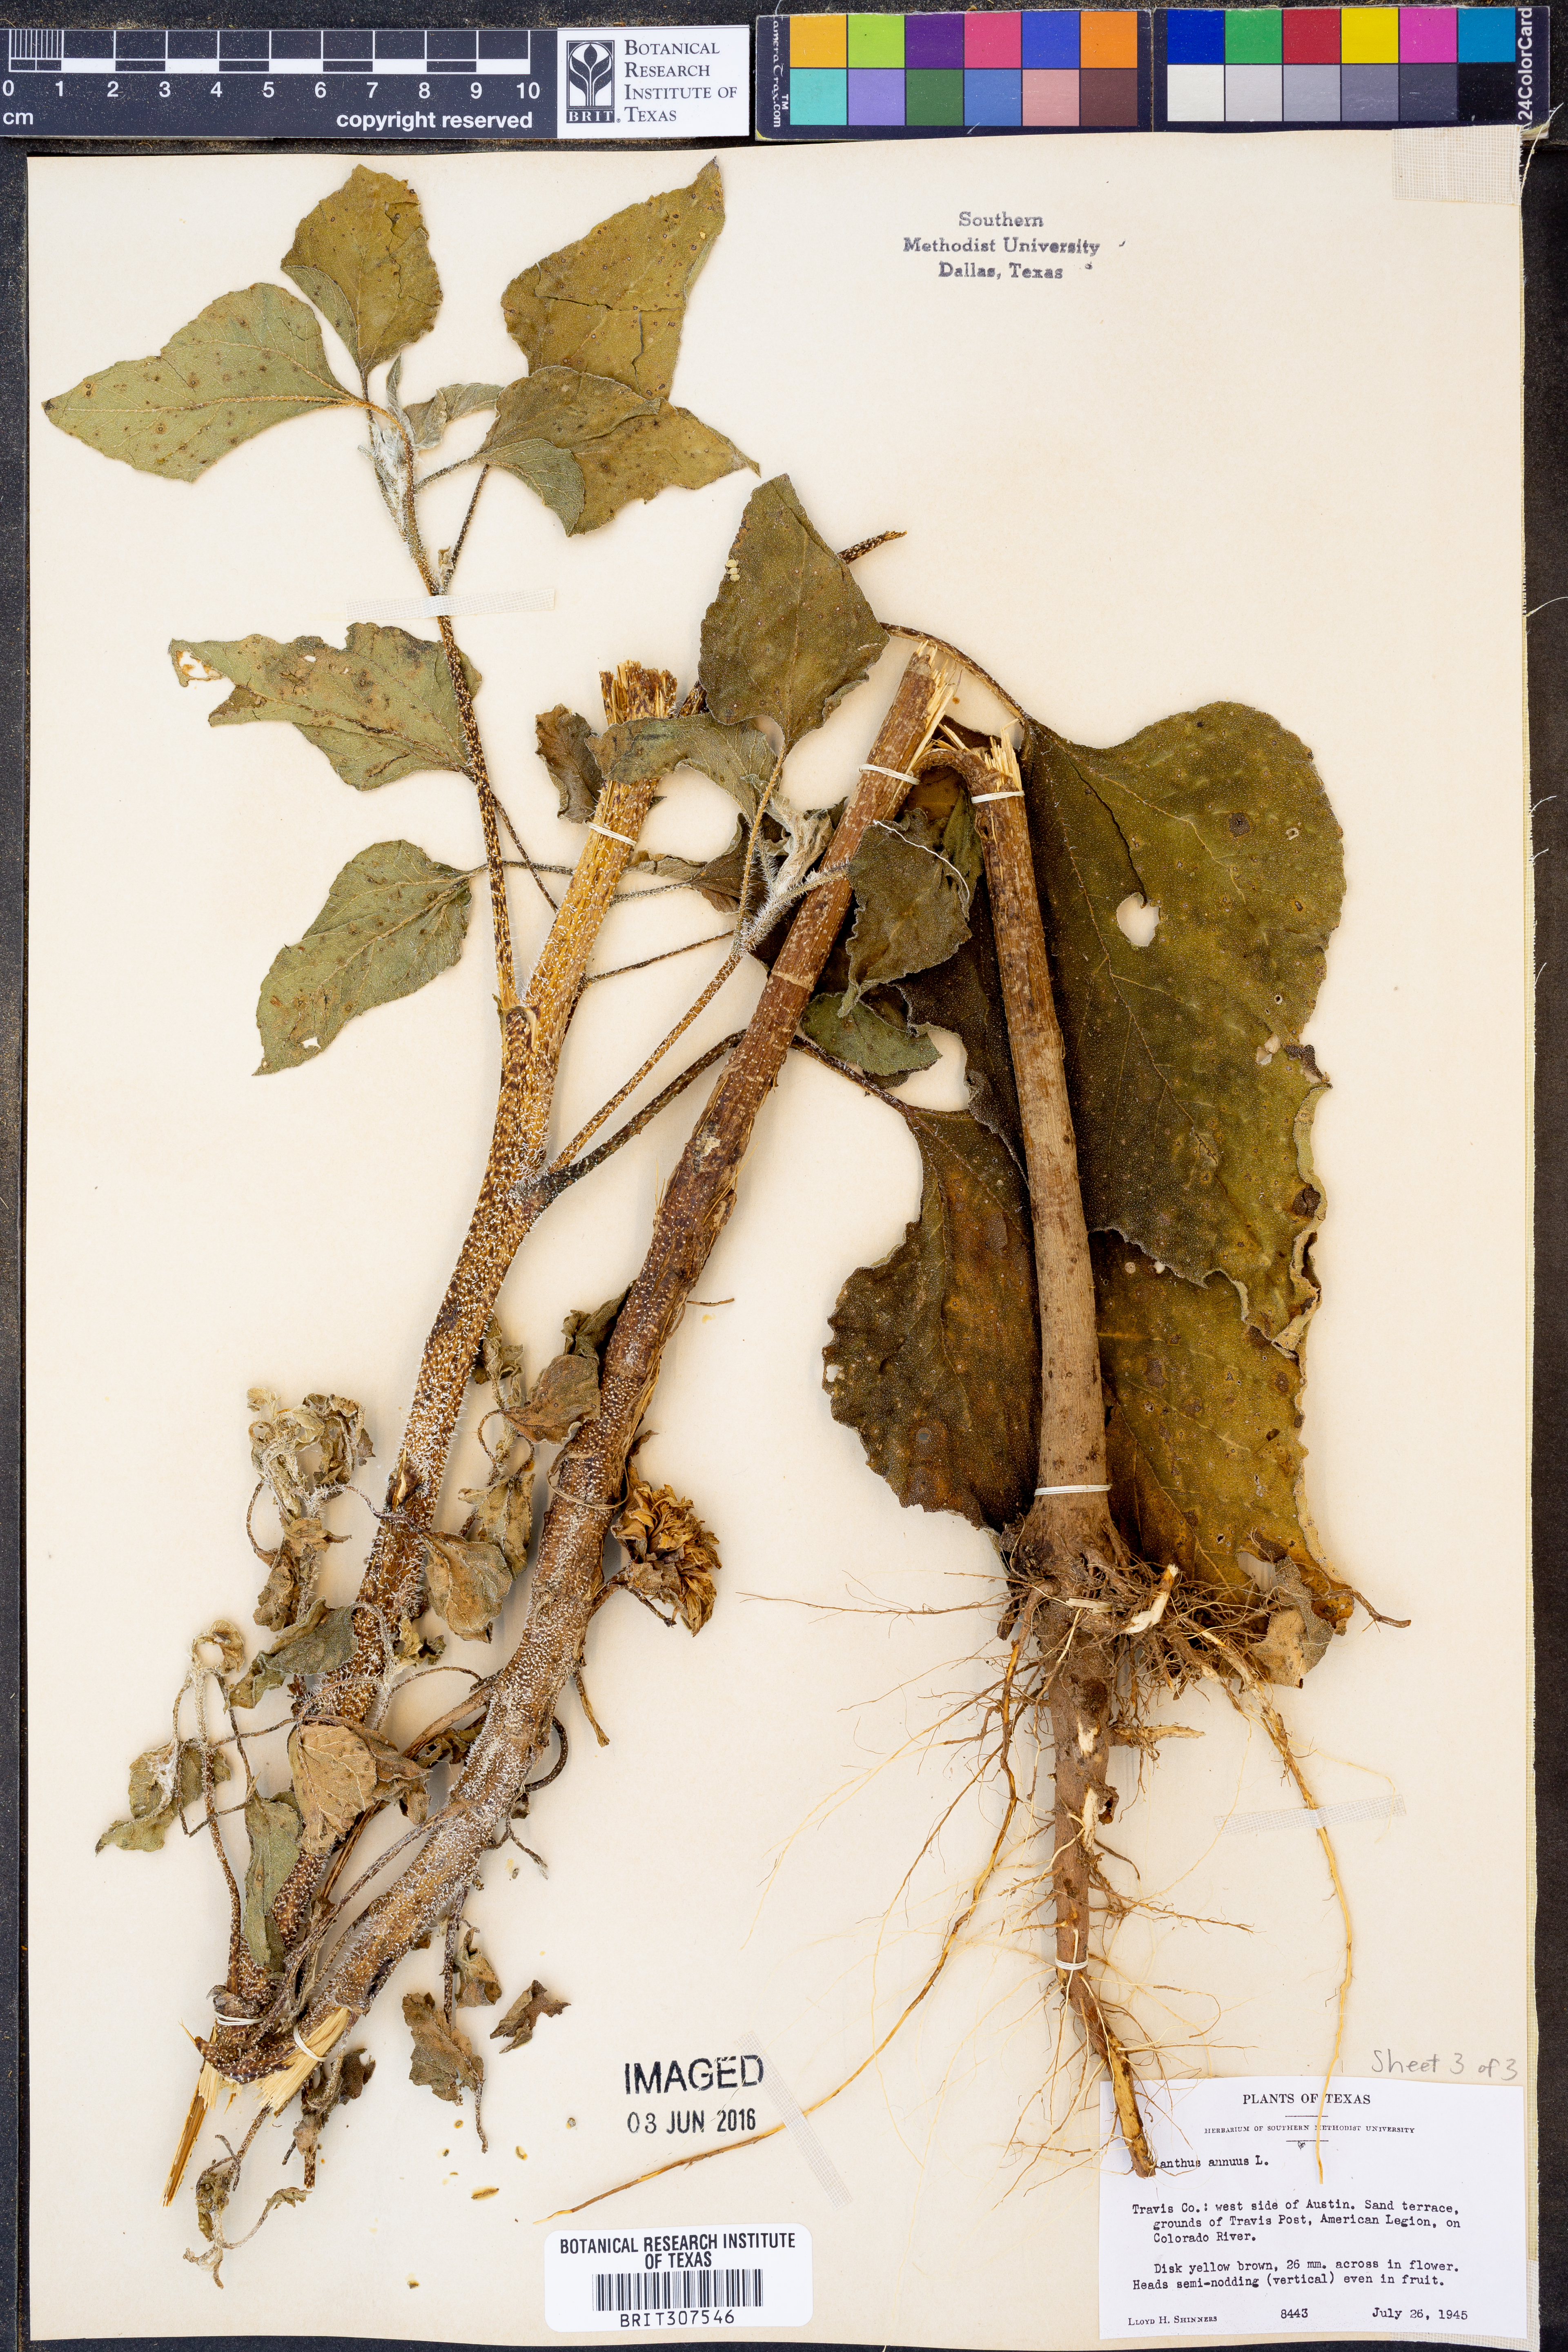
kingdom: Plantae
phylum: Tracheophyta
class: Magnoliopsida
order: Asterales
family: Asteraceae
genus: Helianthus
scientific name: Helianthus annuus
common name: Sunflower
